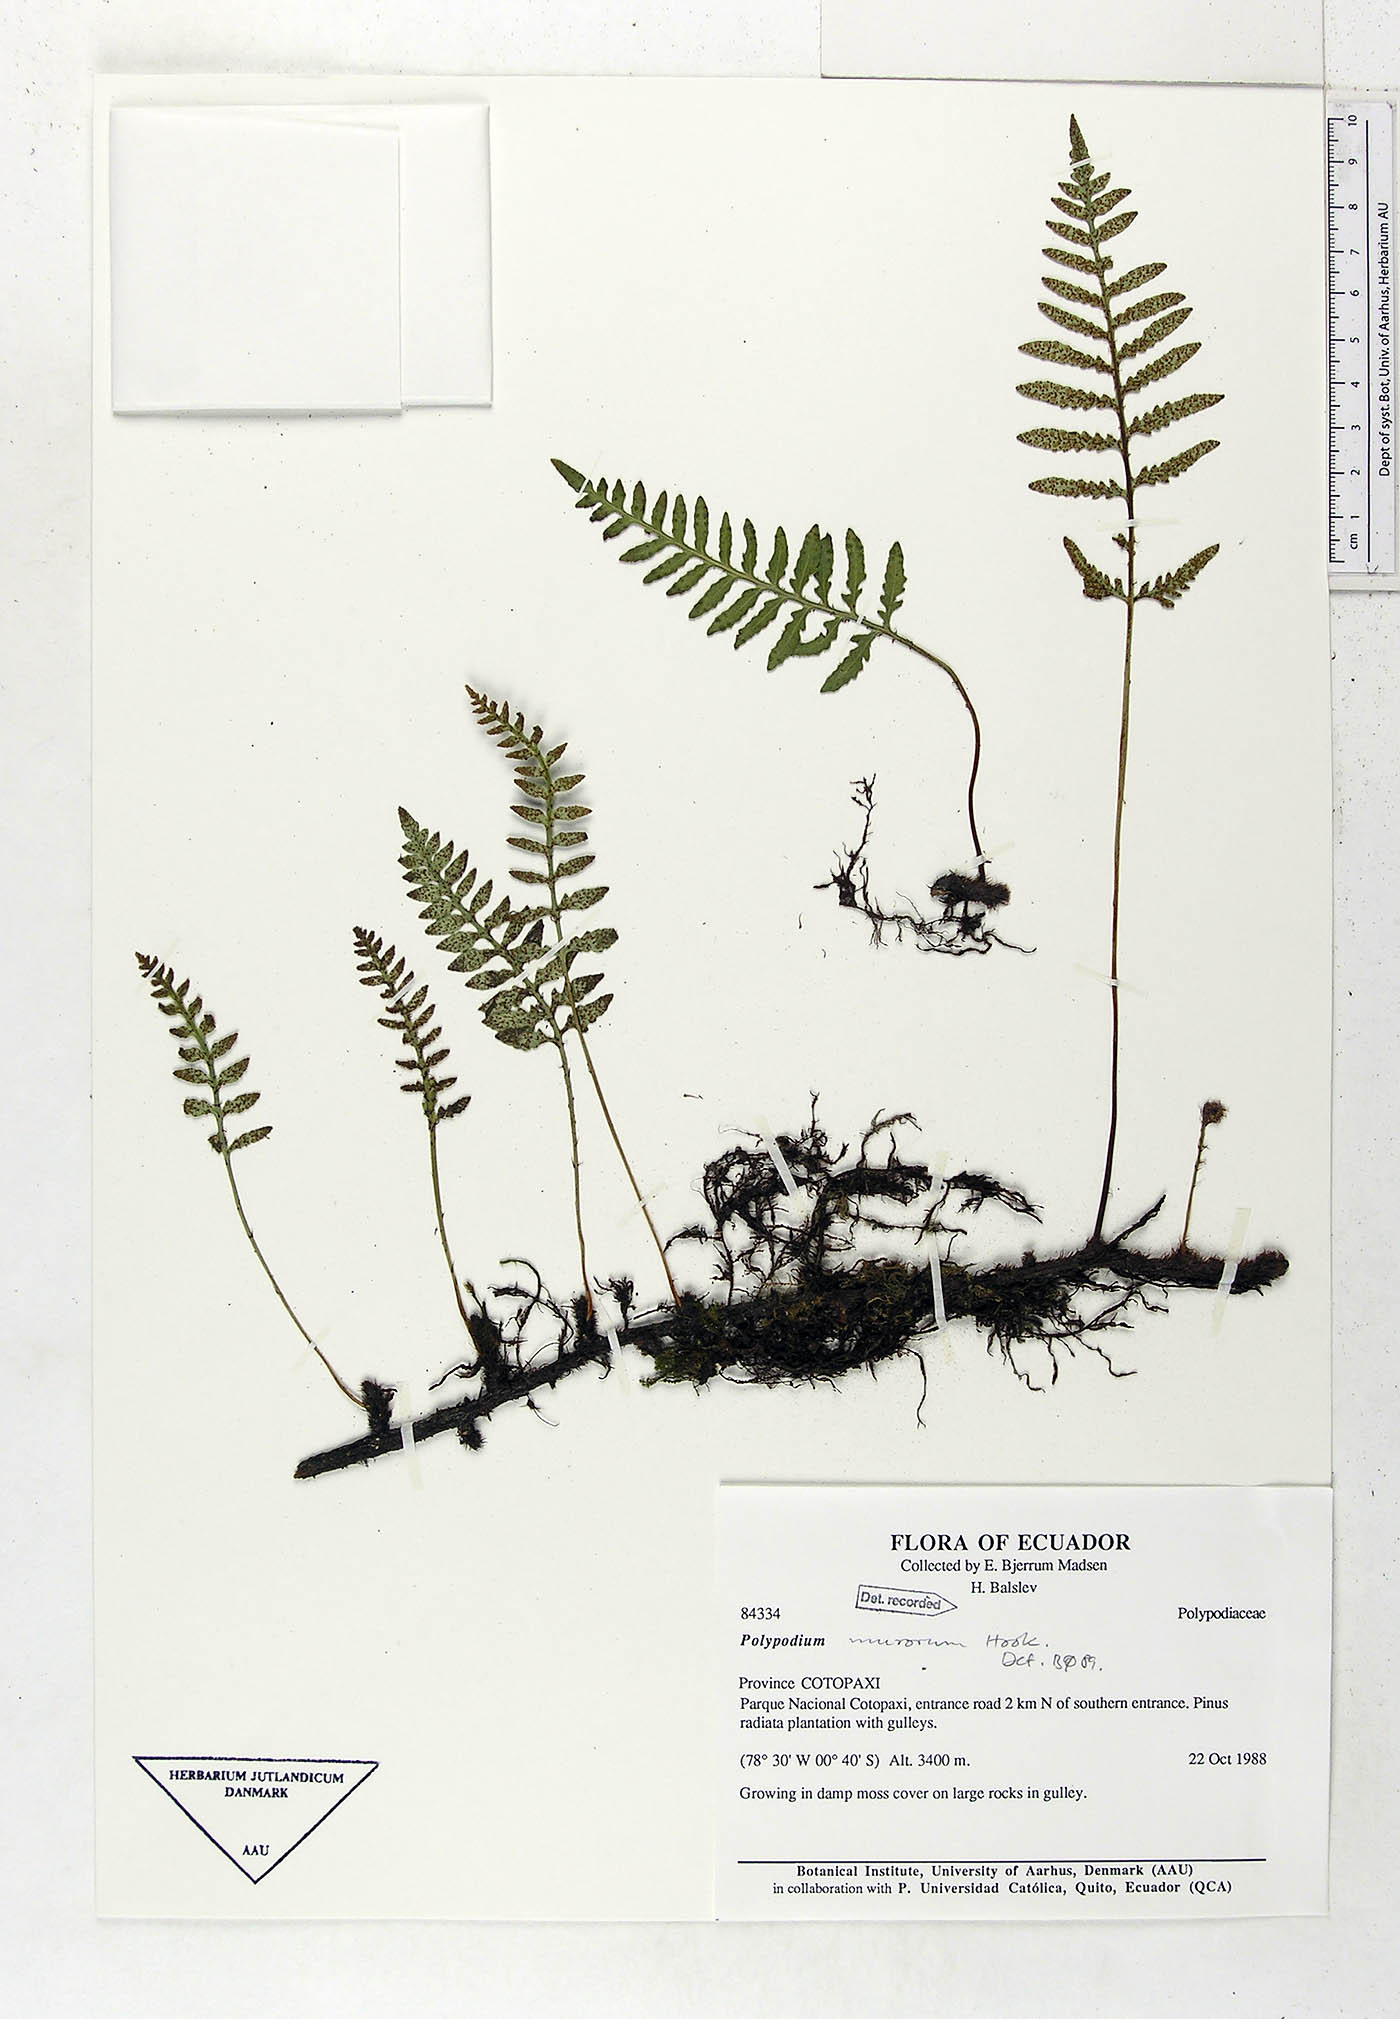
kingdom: Plantae
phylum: Tracheophyta
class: Polypodiopsida
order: Polypodiales
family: Polypodiaceae
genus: Pleopeltis
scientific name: Pleopeltis murora
